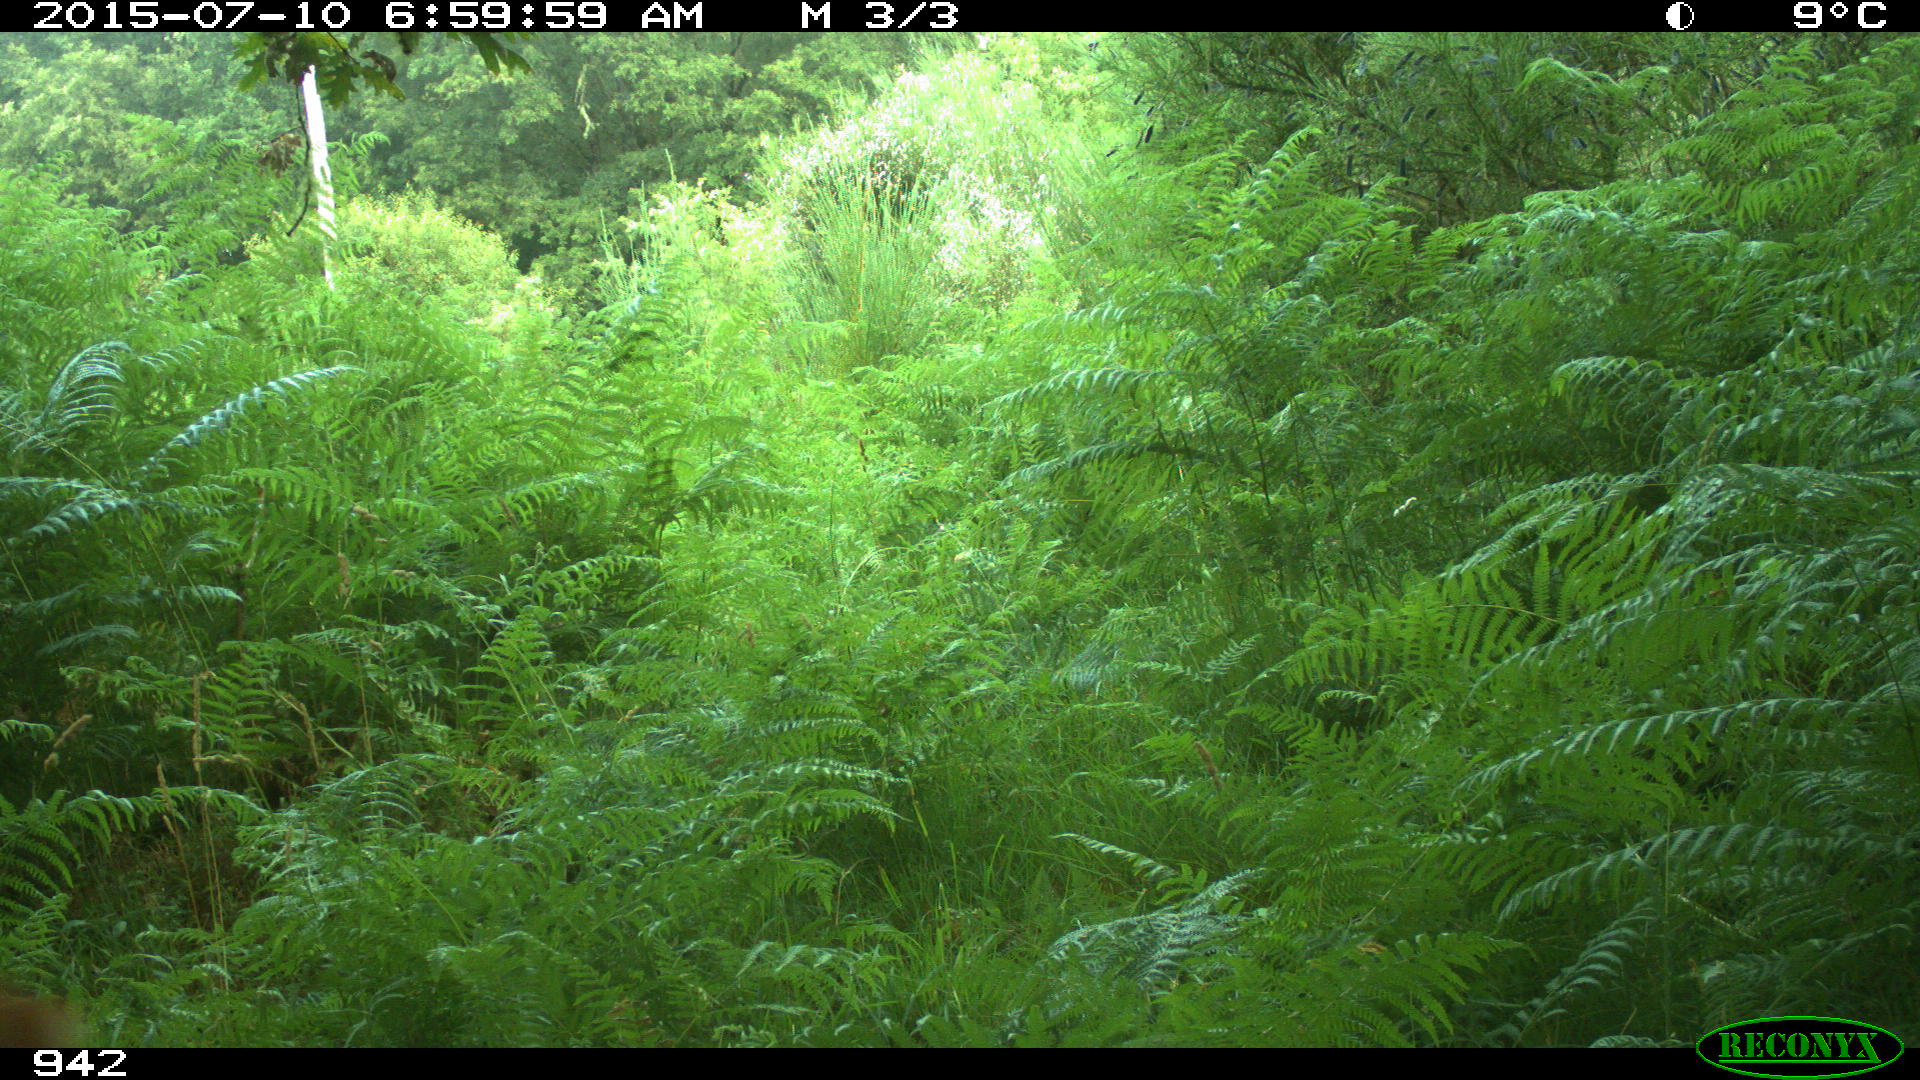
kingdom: Animalia
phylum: Chordata
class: Mammalia
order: Artiodactyla
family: Cervidae
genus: Capreolus
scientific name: Capreolus capreolus
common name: Western roe deer
